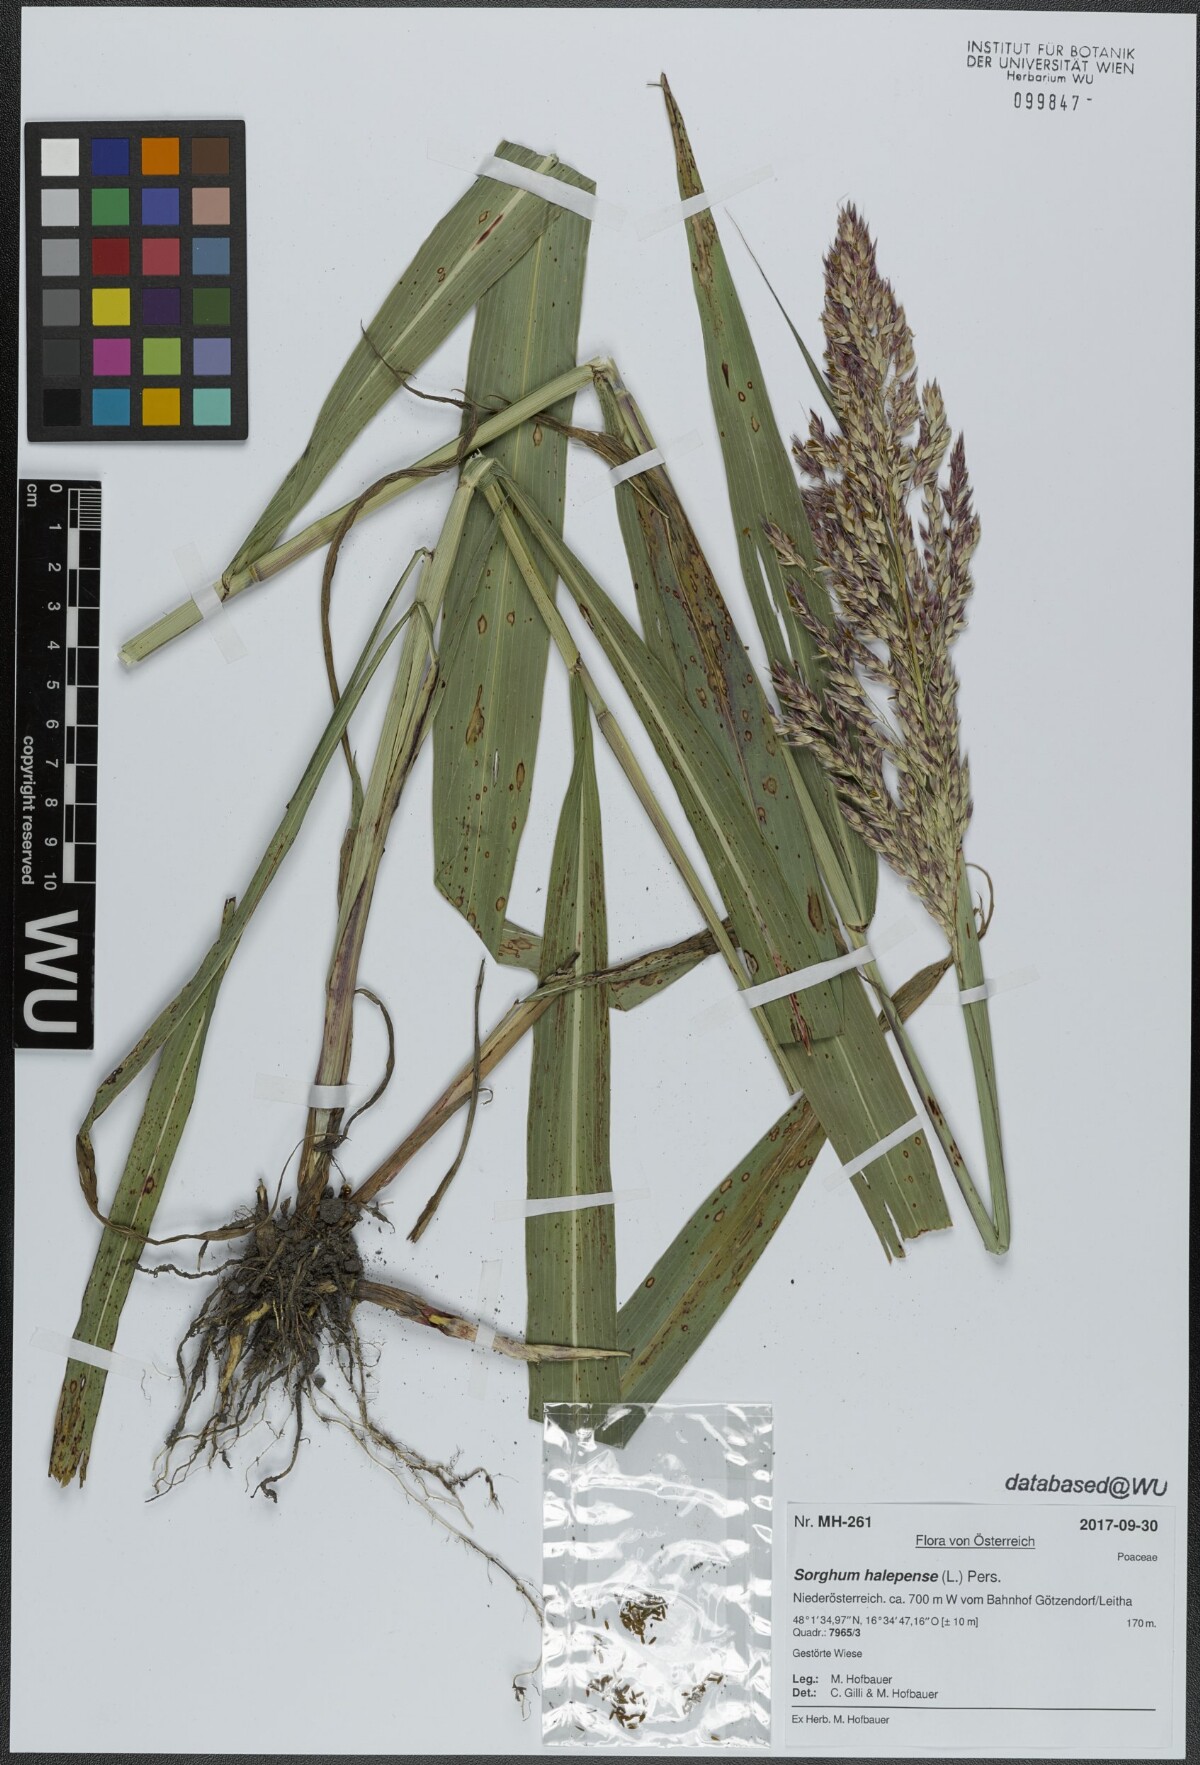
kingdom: Plantae
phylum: Tracheophyta
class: Liliopsida
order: Poales
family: Poaceae
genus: Sorghum
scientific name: Sorghum halepense
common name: Johnson-grass
